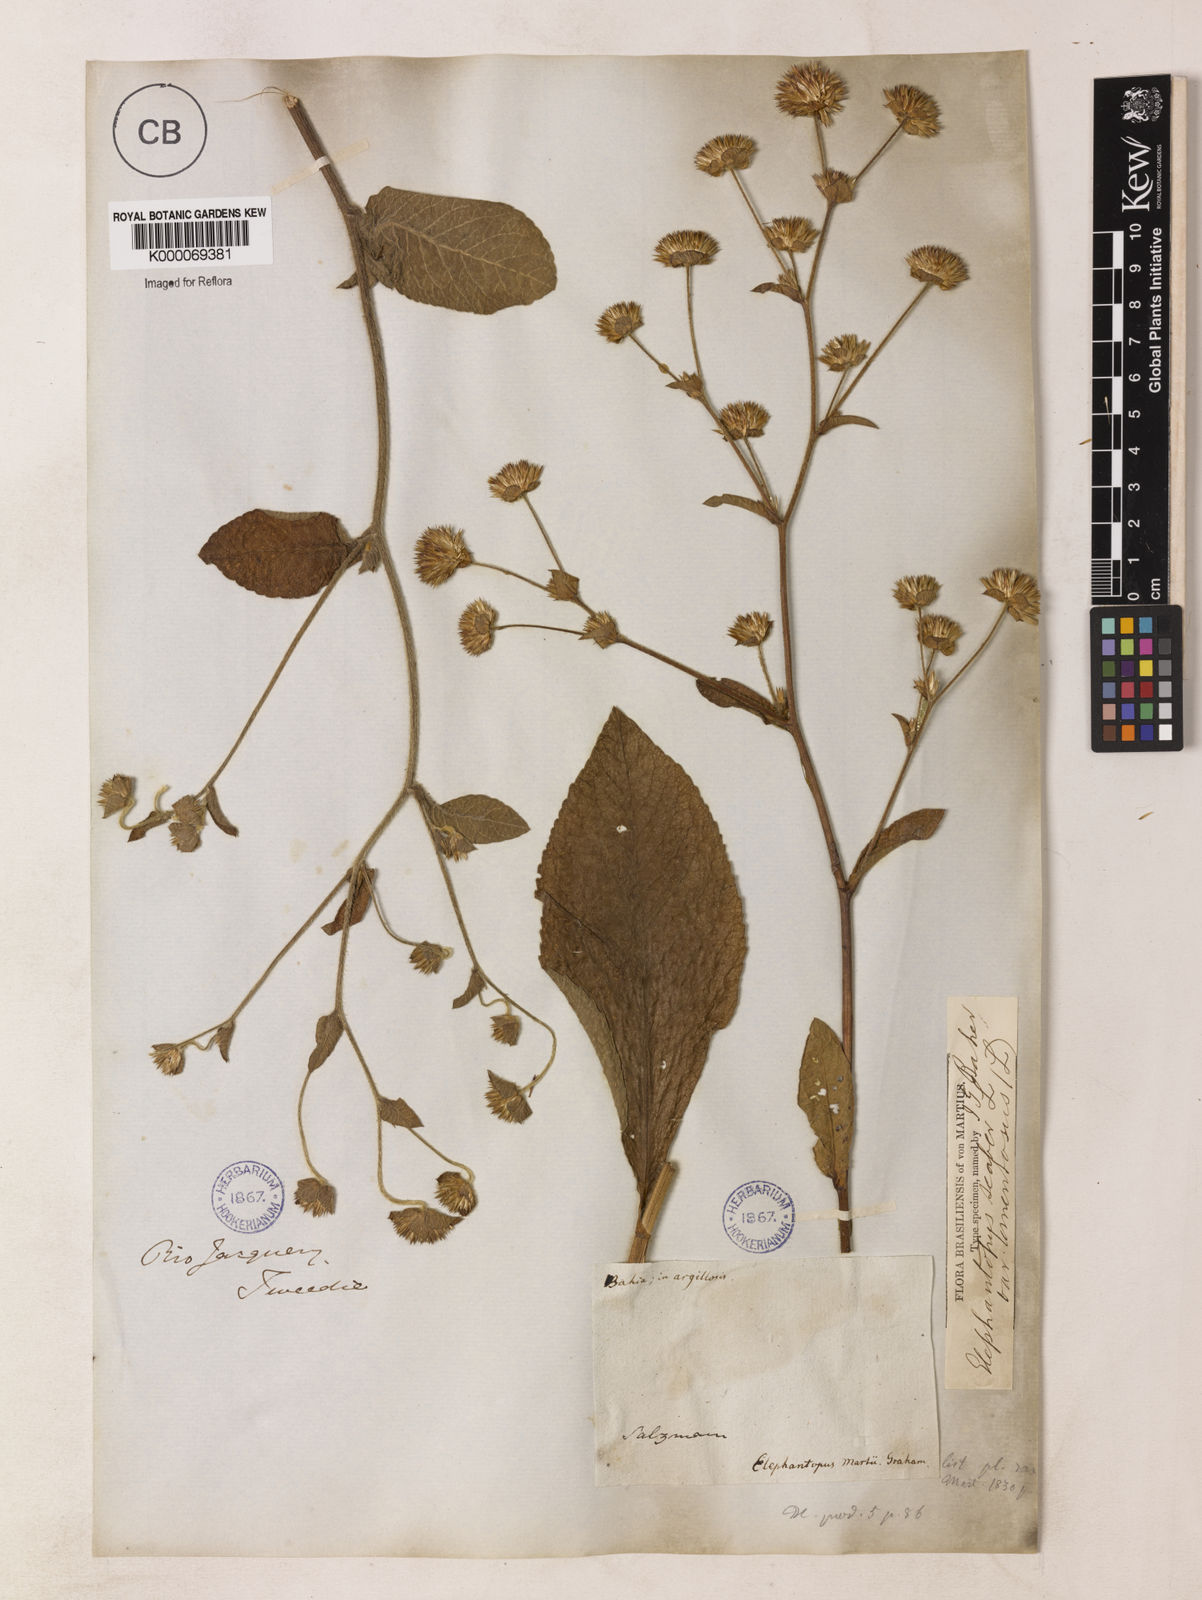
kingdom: Plantae
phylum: Tracheophyta
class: Magnoliopsida
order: Asterales
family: Asteraceae
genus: Elephantopus
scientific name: Elephantopus mollis
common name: Soft elephantsfoot
